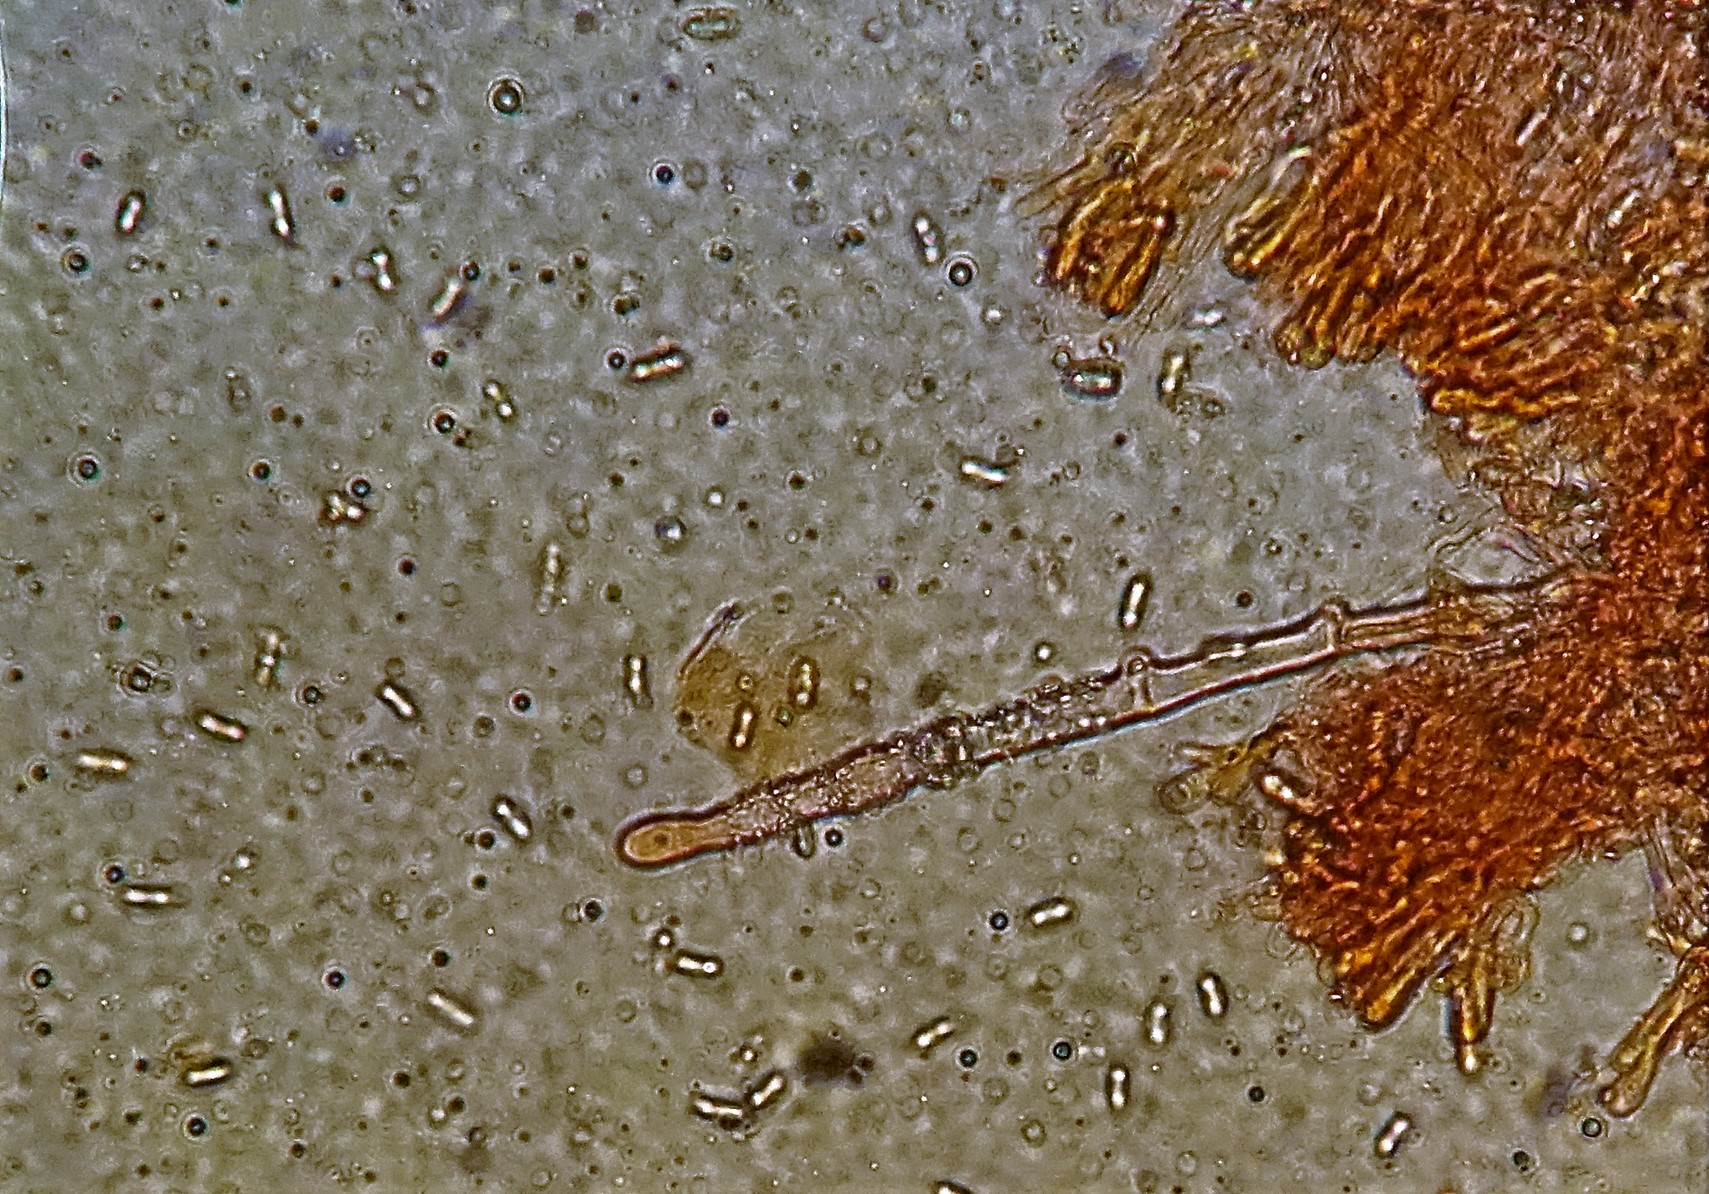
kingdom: Fungi
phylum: Basidiomycota
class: Agaricomycetes
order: Polyporales
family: Hyphodermataceae
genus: Hyphoderma
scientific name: Hyphoderma setigerum
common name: håret kalkskind
